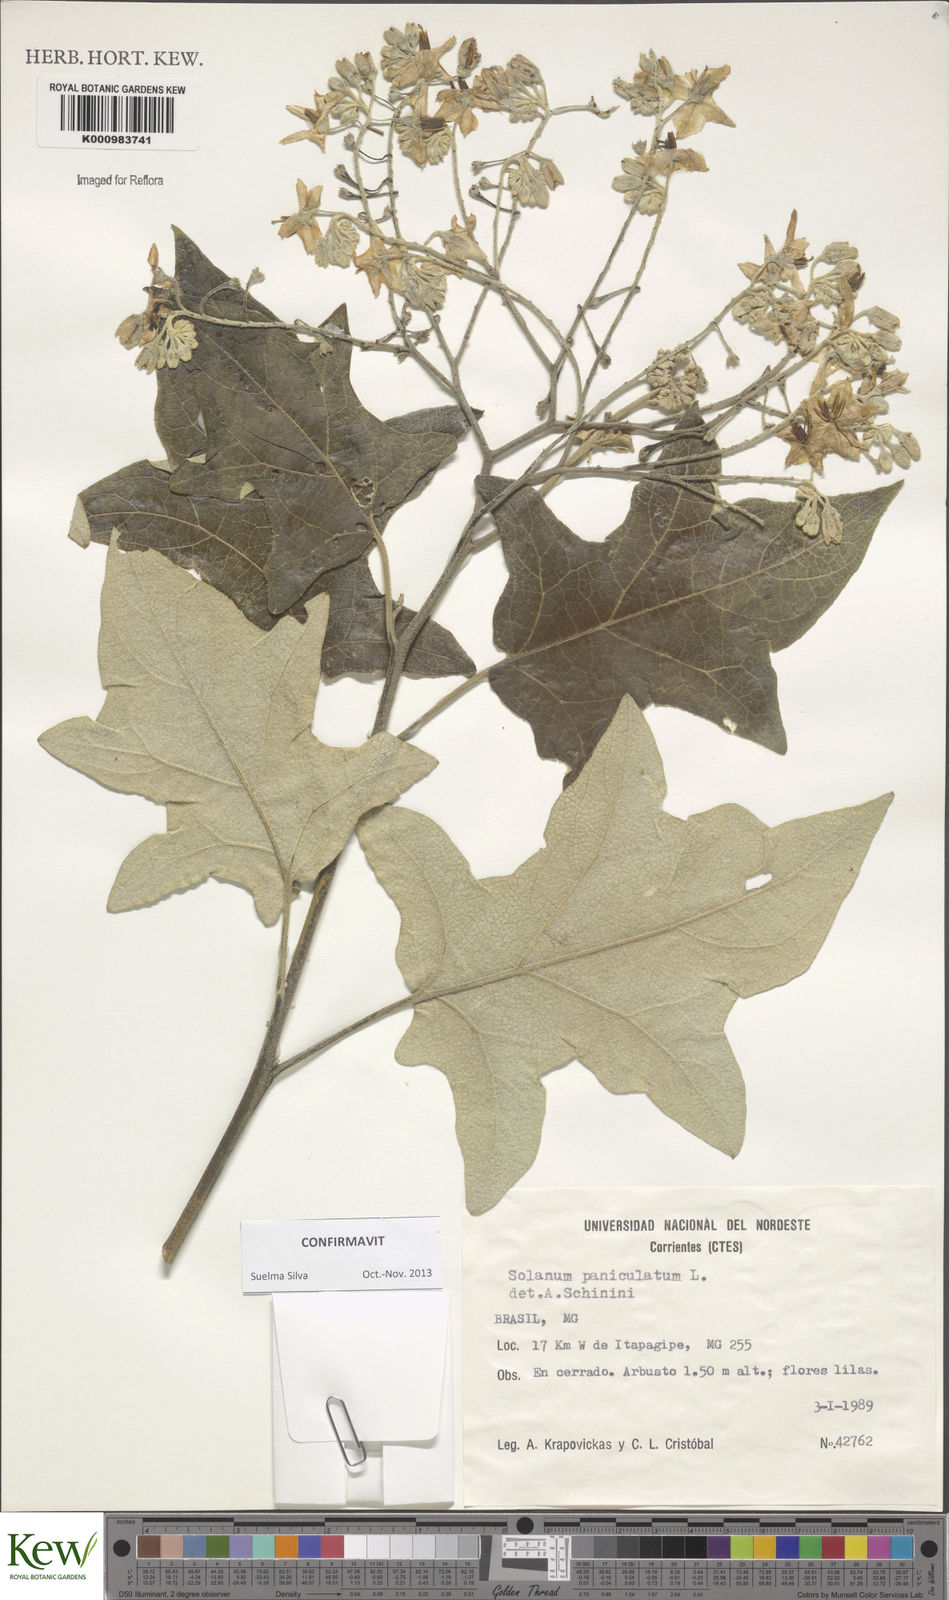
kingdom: Plantae
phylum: Tracheophyta
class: Magnoliopsida
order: Solanales
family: Solanaceae
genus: Solanum
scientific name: Solanum paniculatum
